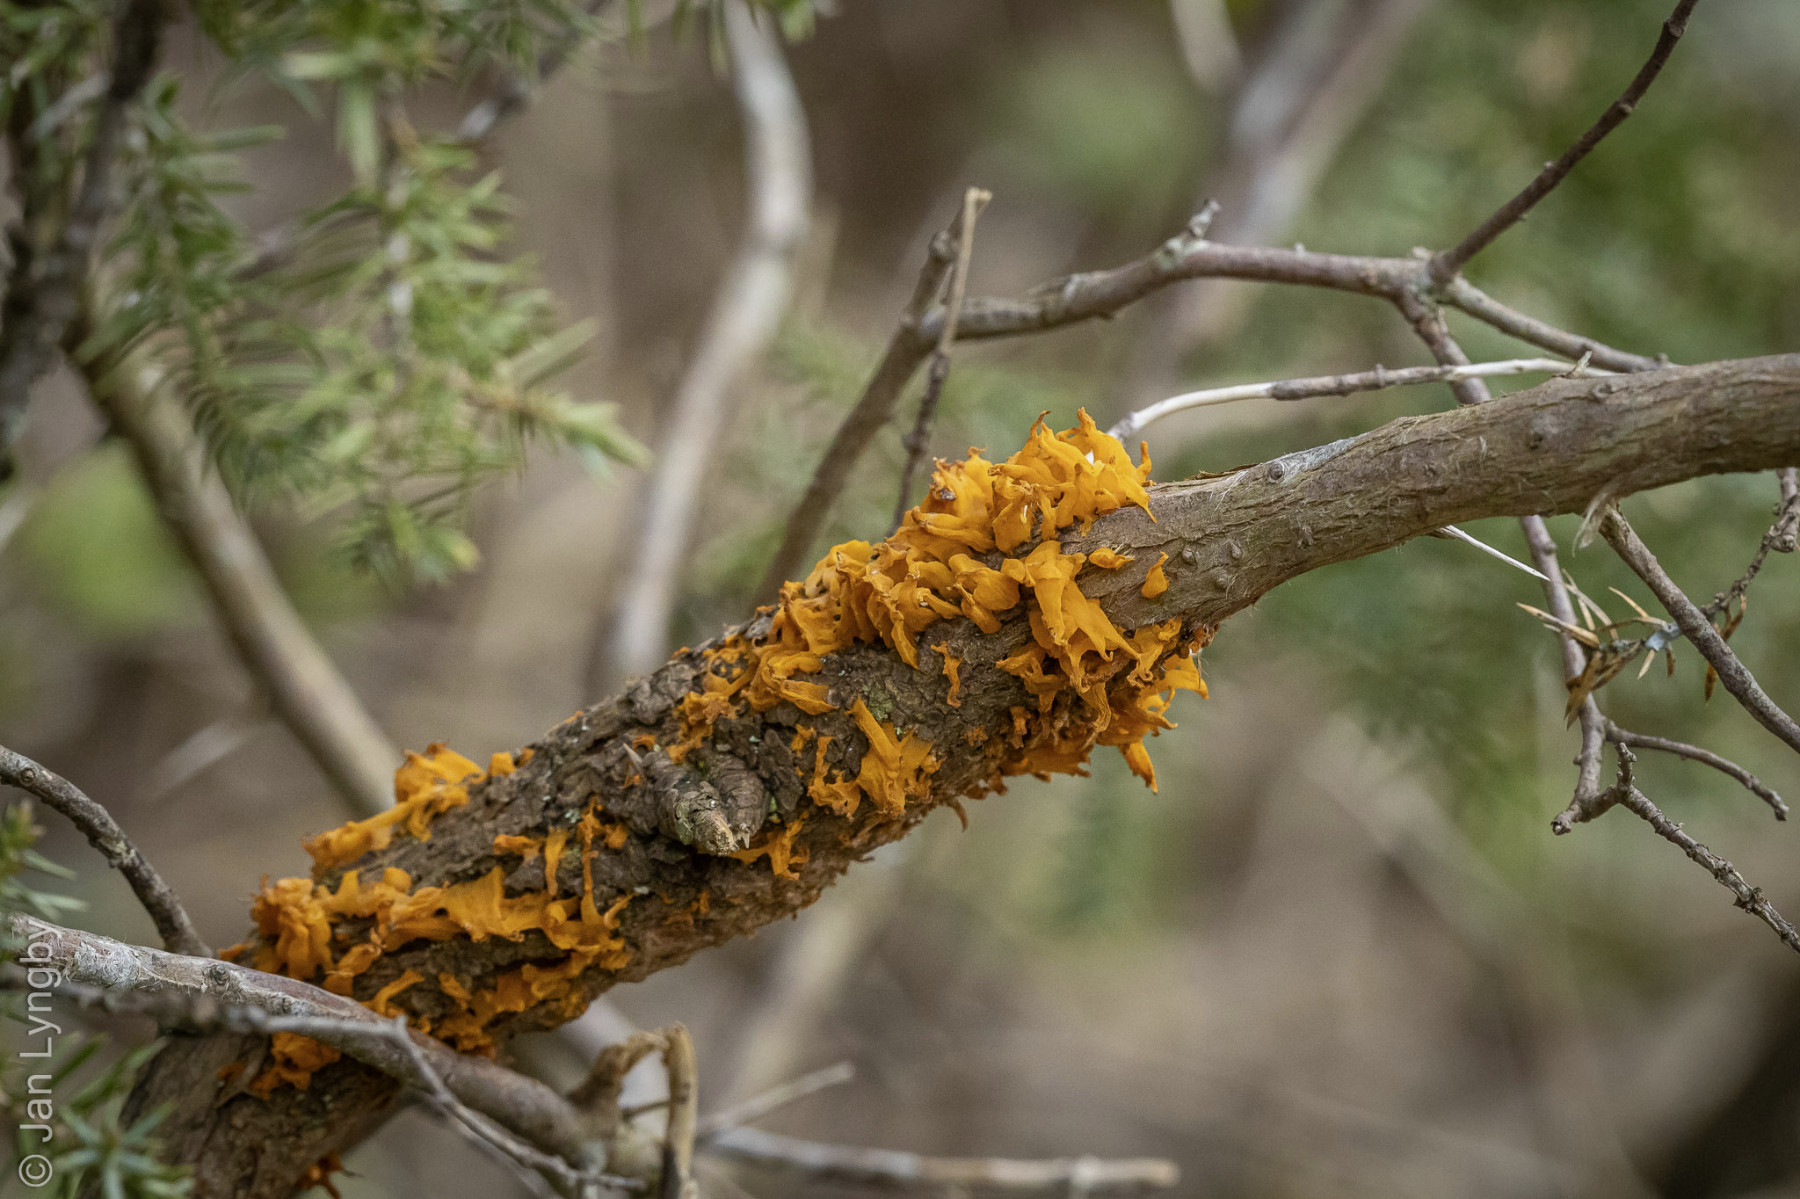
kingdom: Fungi
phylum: Basidiomycota
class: Pucciniomycetes
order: Pucciniales
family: Gymnosporangiaceae
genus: Gymnosporangium
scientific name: Gymnosporangium clavariiforme
